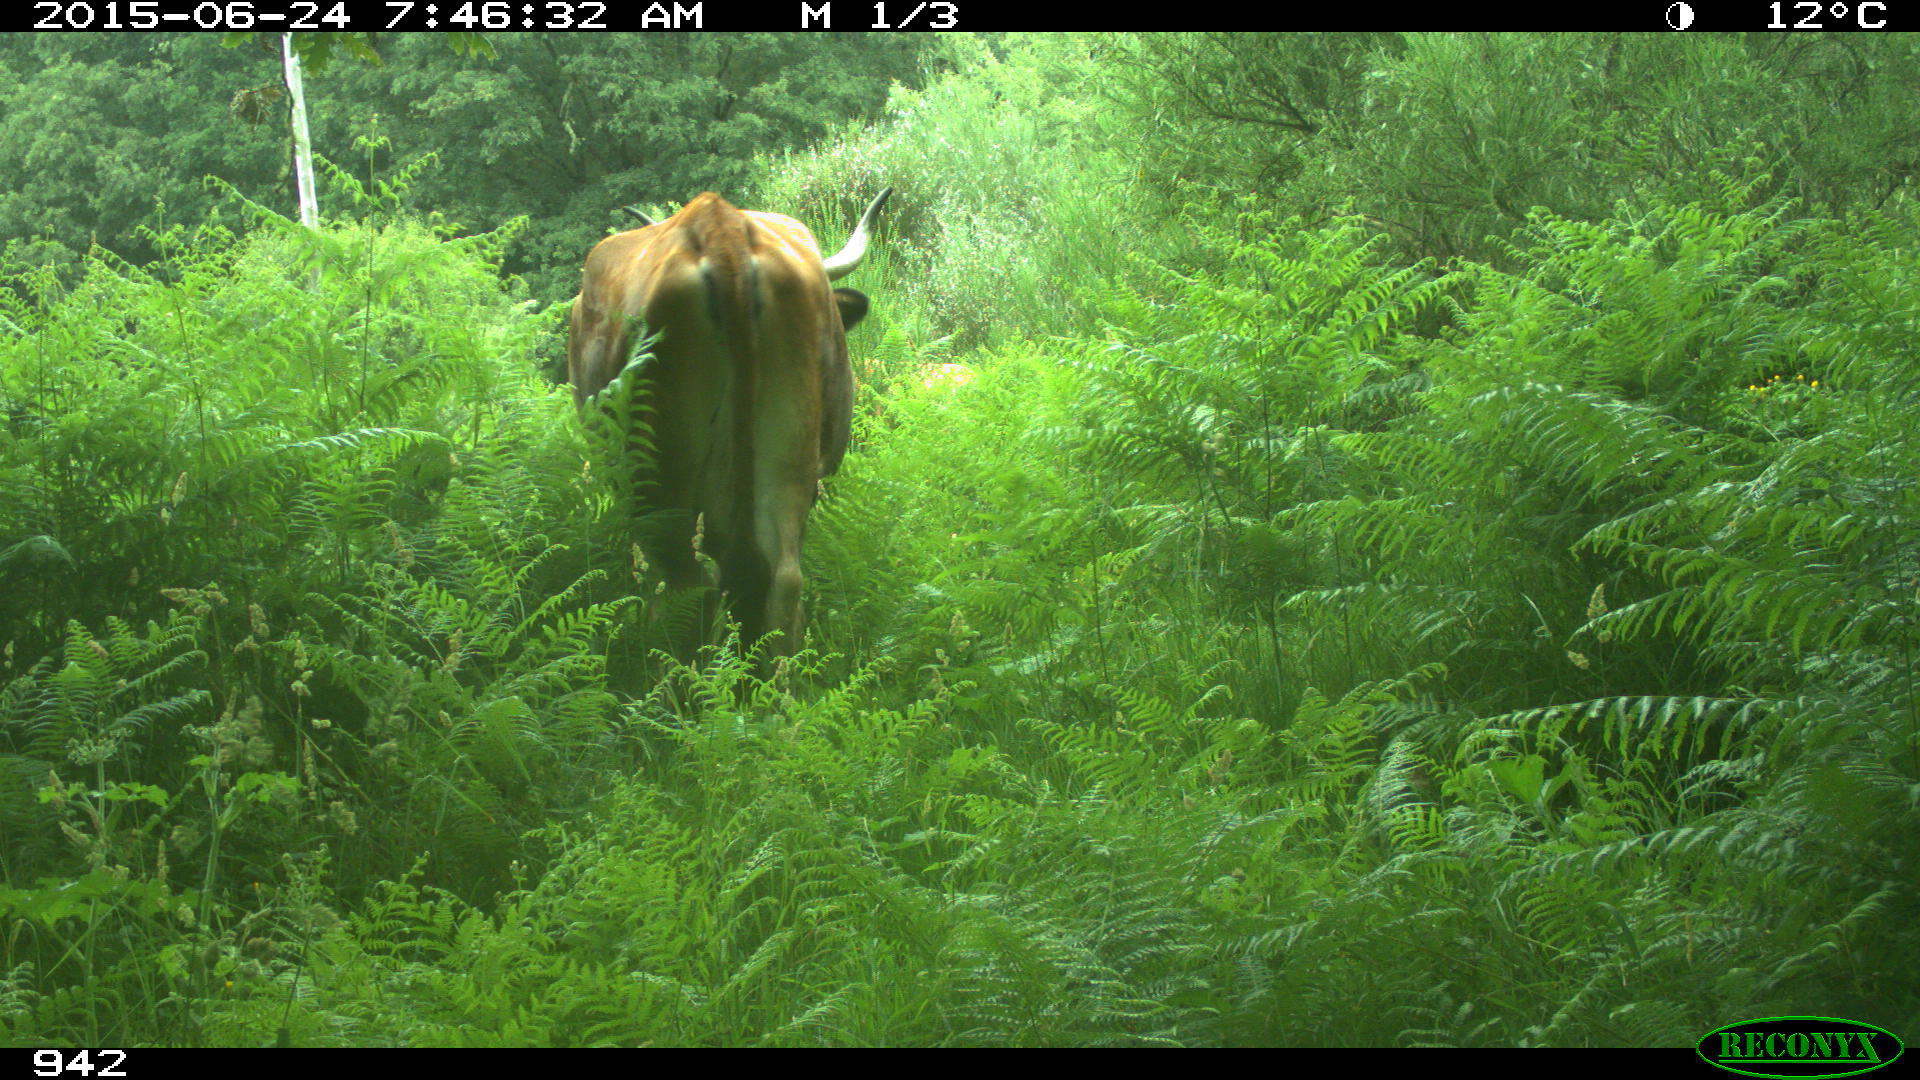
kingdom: Animalia
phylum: Chordata
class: Mammalia
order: Artiodactyla
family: Bovidae
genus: Bos
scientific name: Bos taurus
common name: Domesticated cattle
